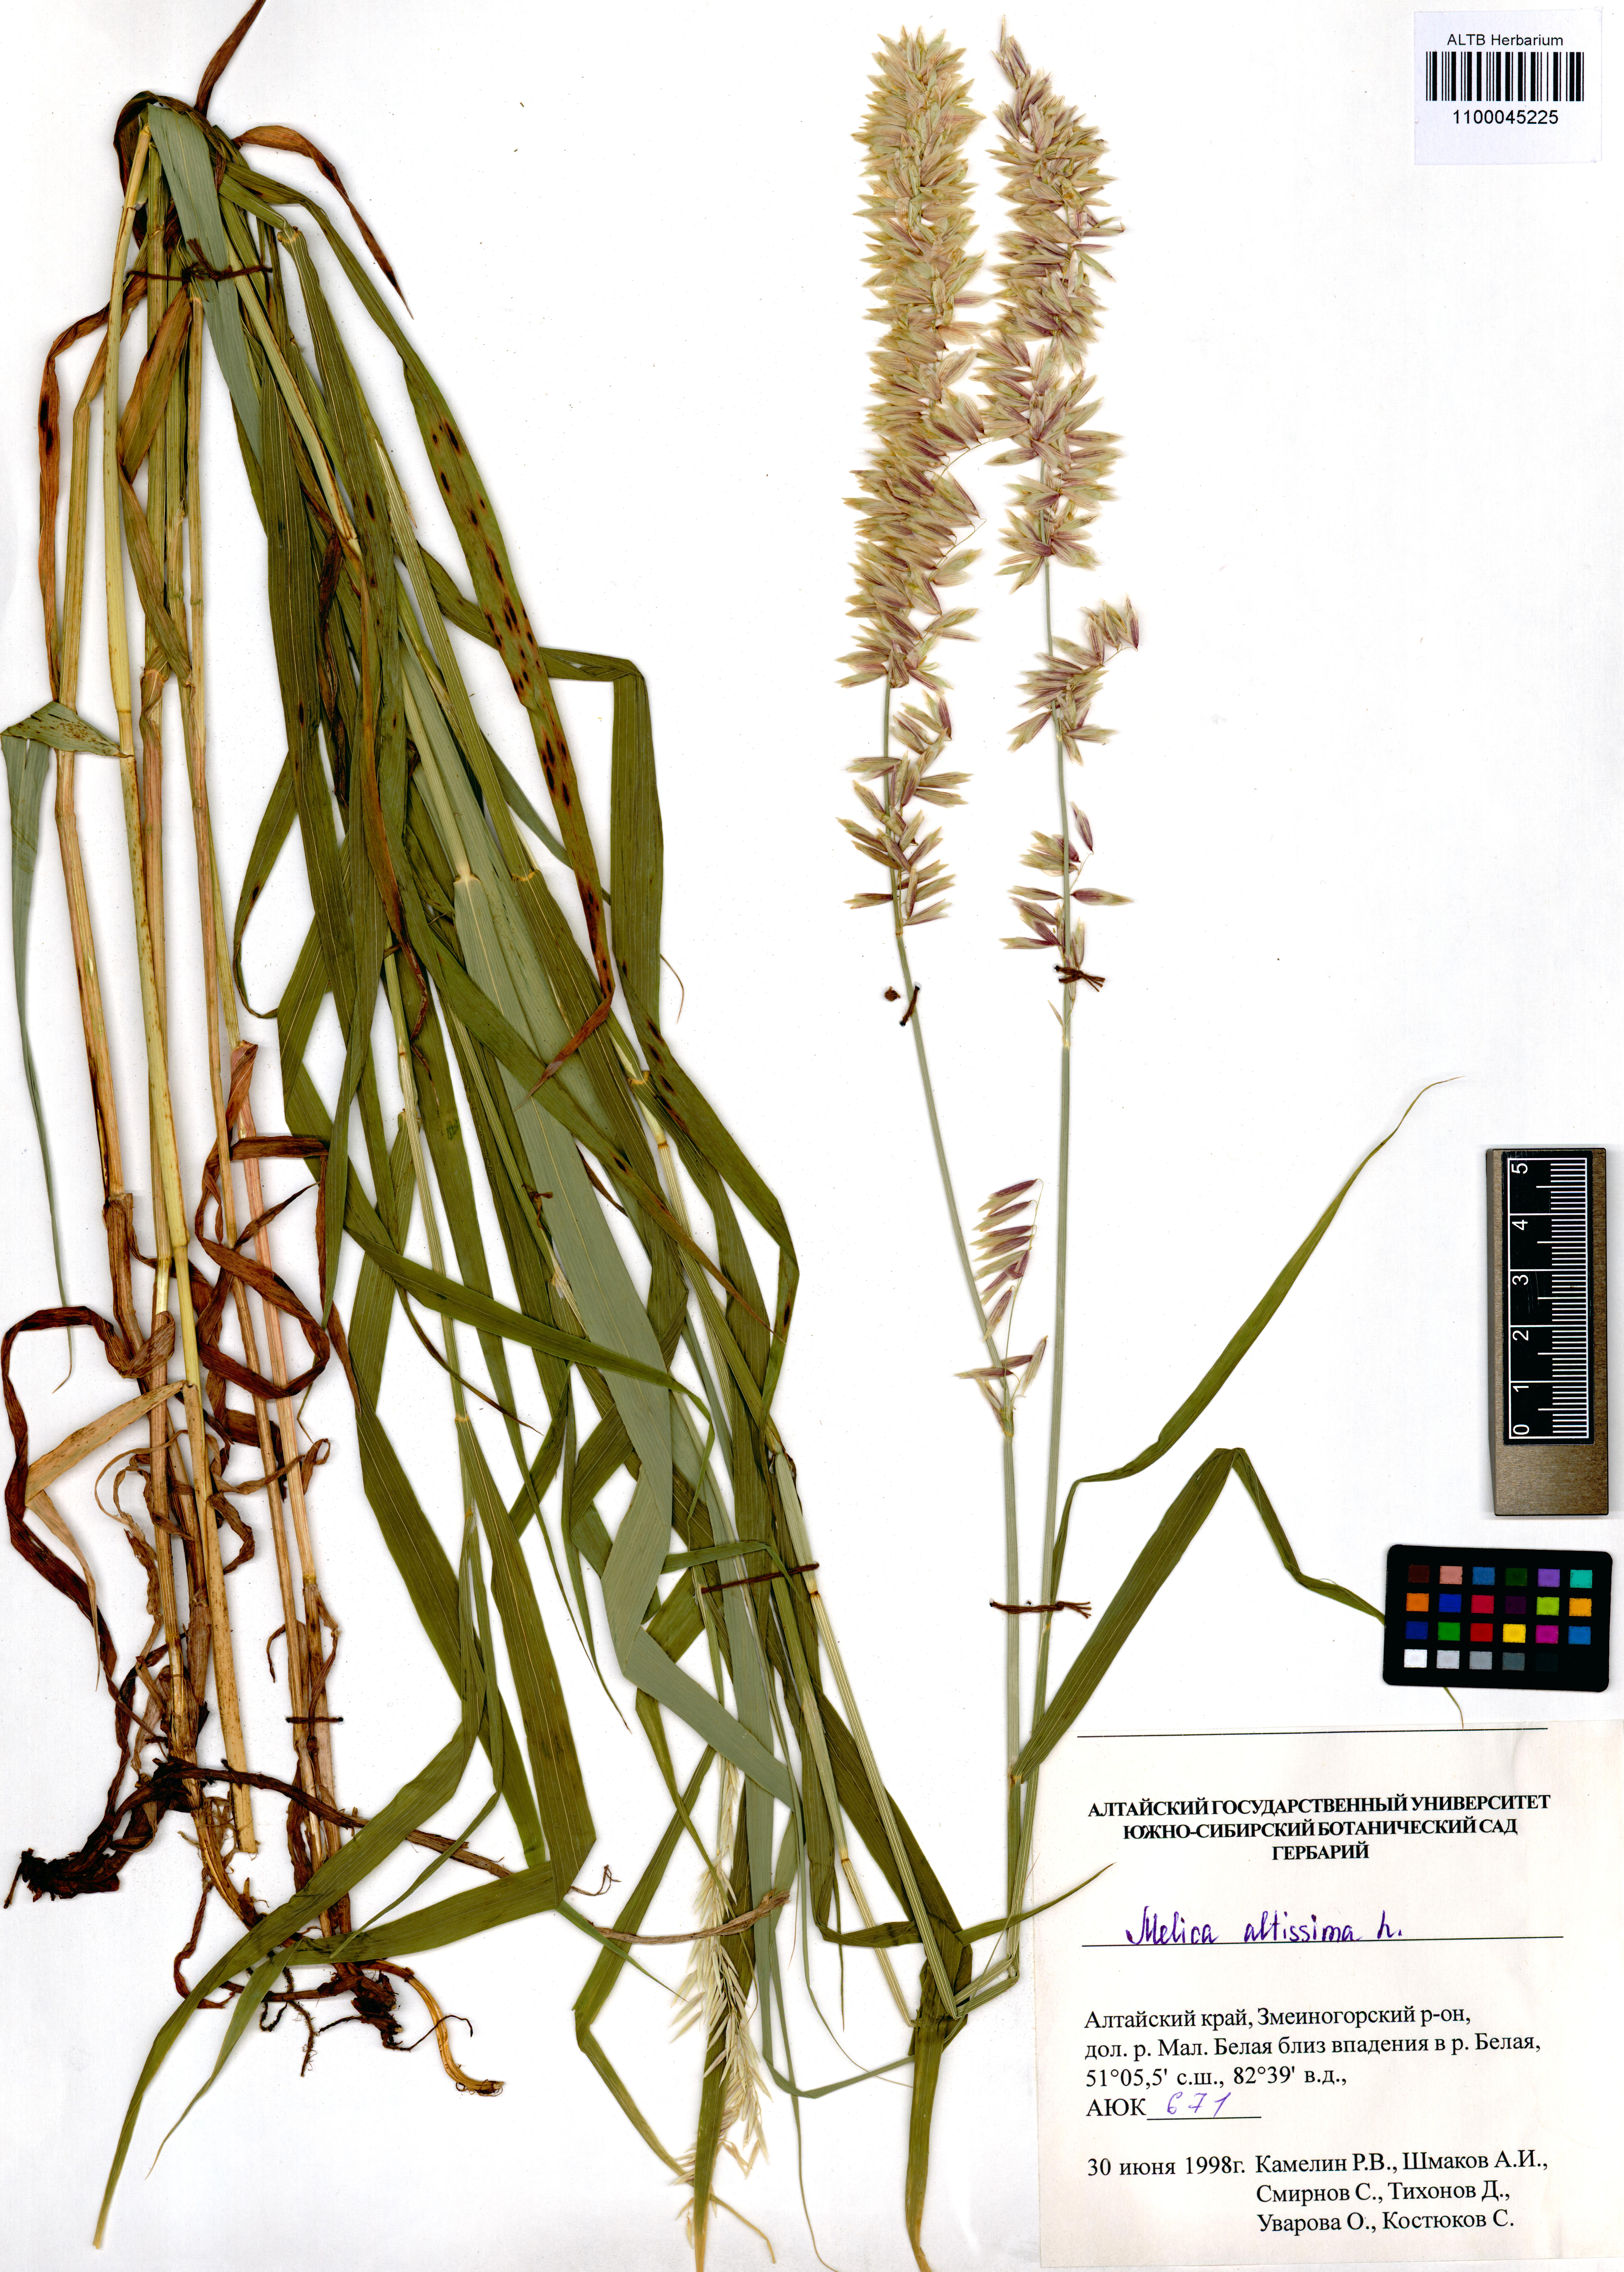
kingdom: Plantae
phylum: Tracheophyta
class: Liliopsida
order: Poales
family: Poaceae
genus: Melica
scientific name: Melica altissima
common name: Siberian melicgrass
